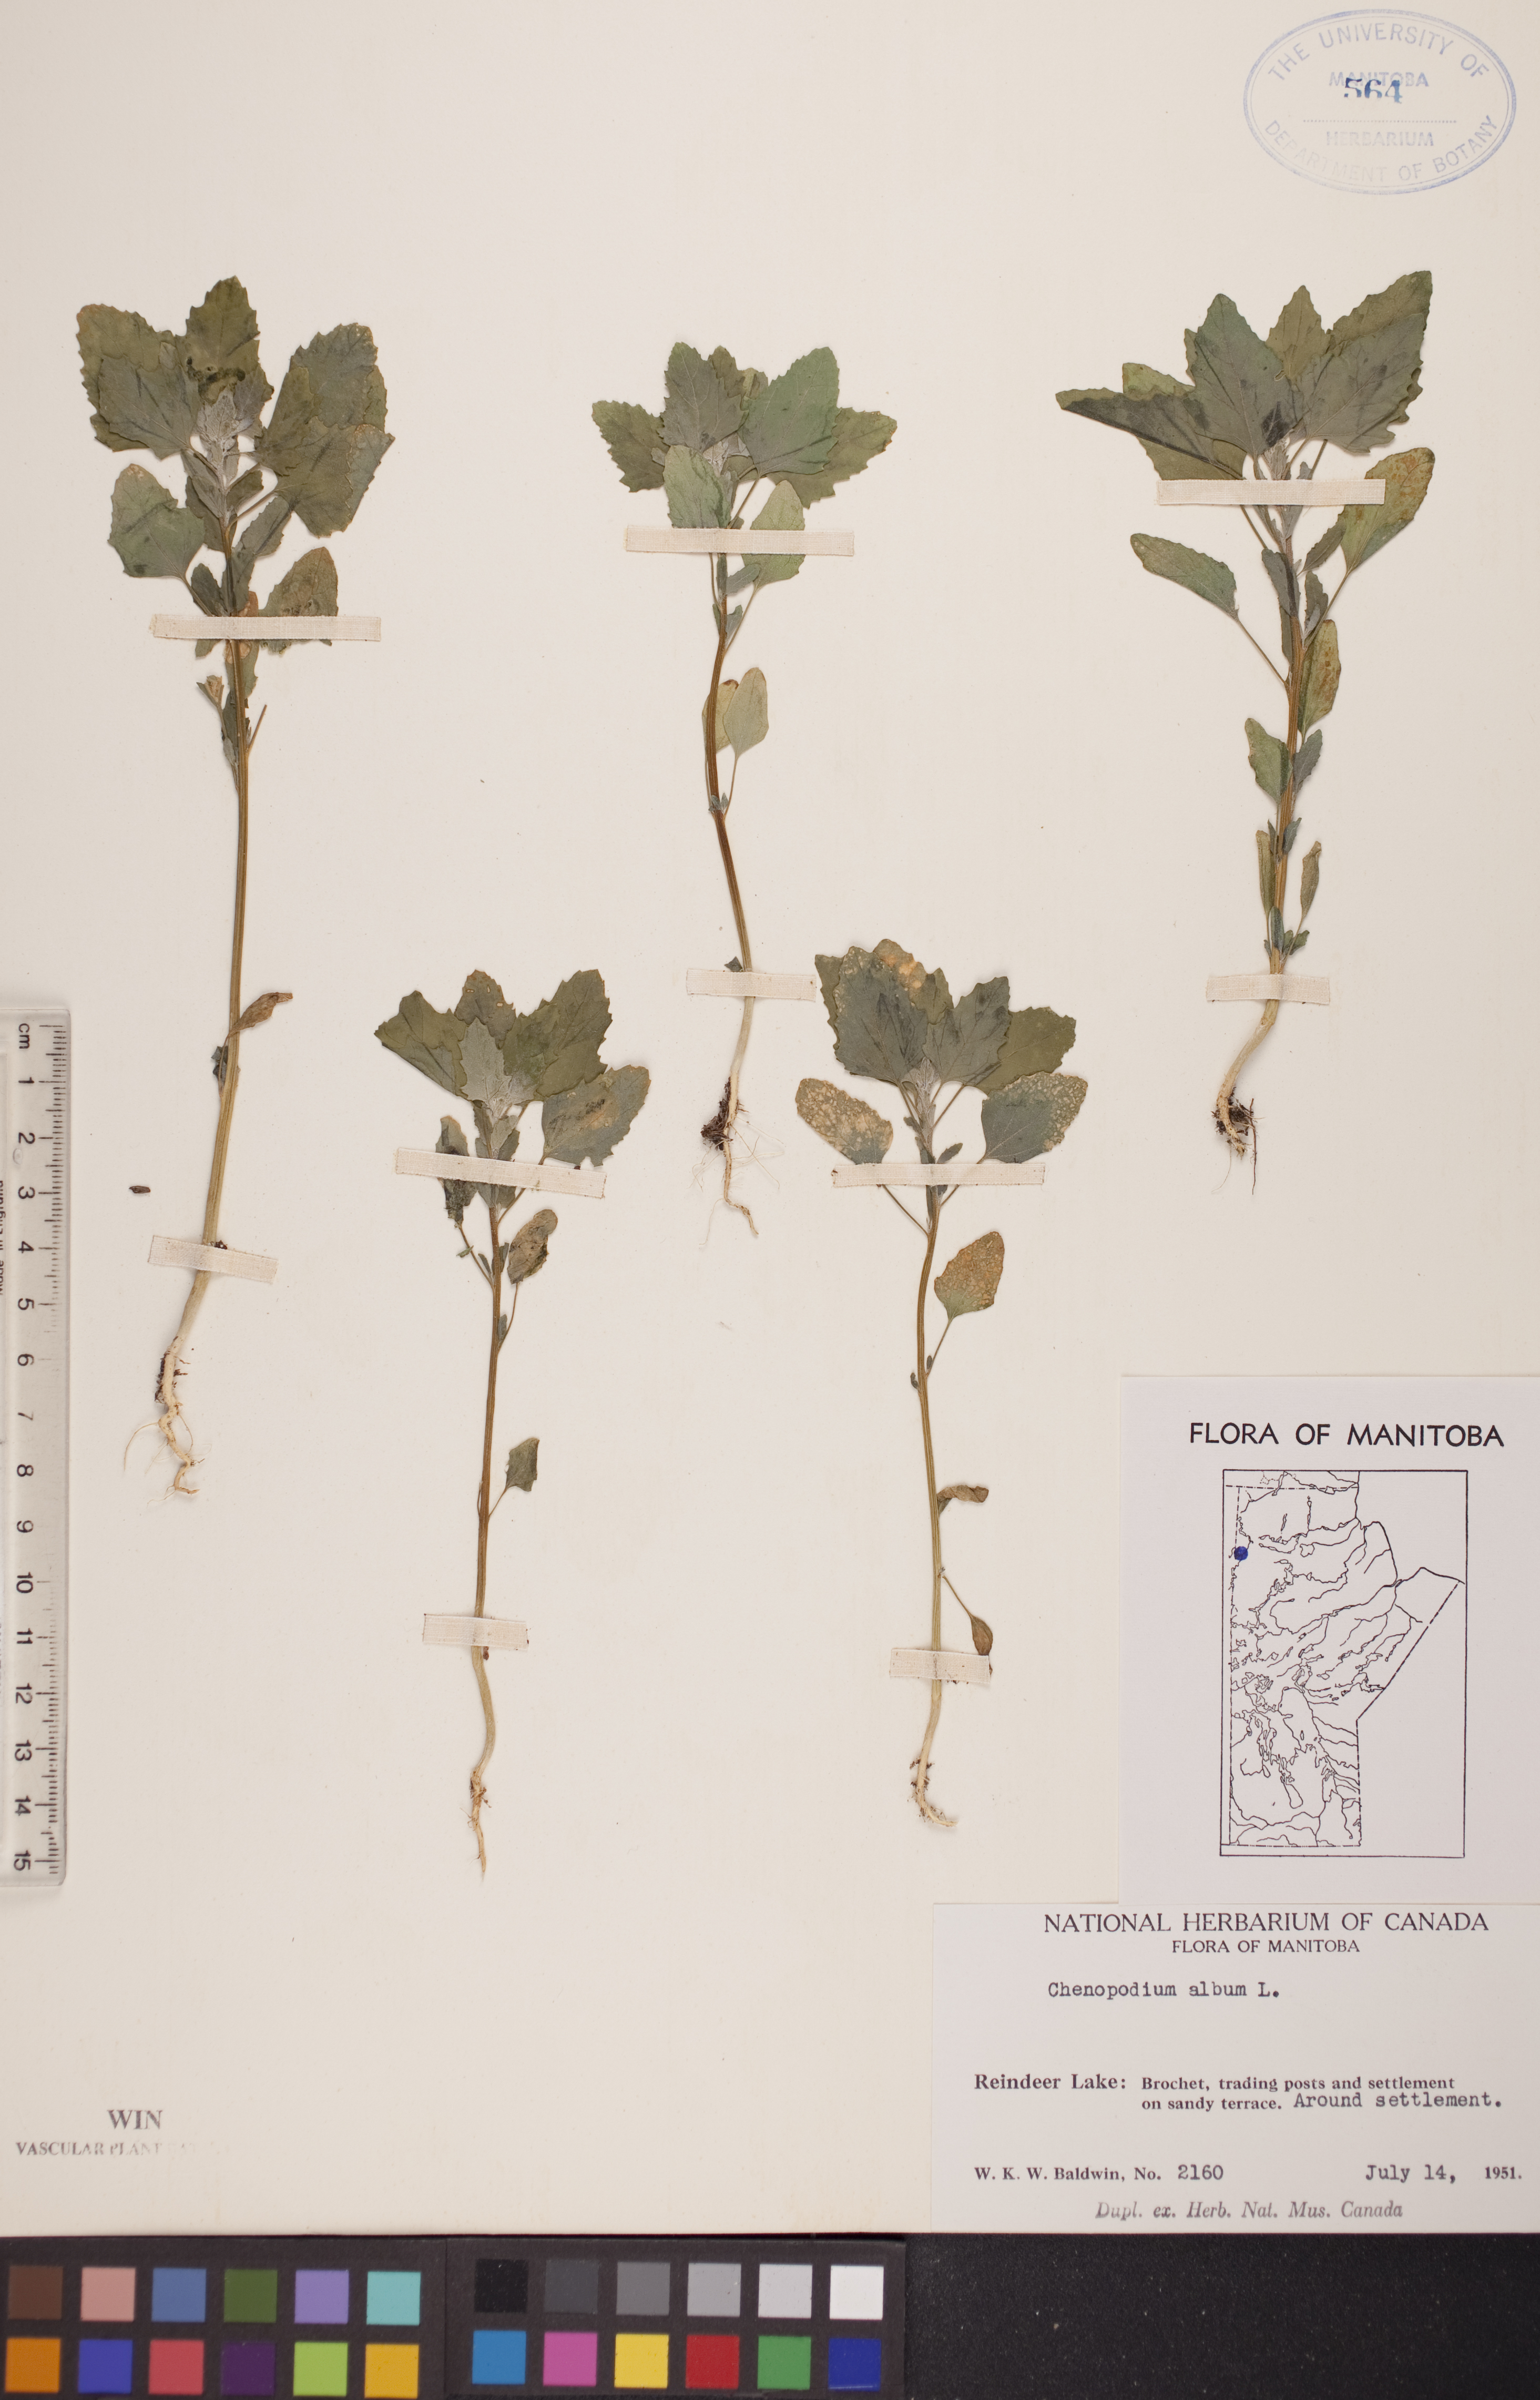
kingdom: Plantae
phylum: Tracheophyta
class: Magnoliopsida
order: Caryophyllales
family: Amaranthaceae
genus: Chenopodium
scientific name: Chenopodium album
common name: Fat-hen
